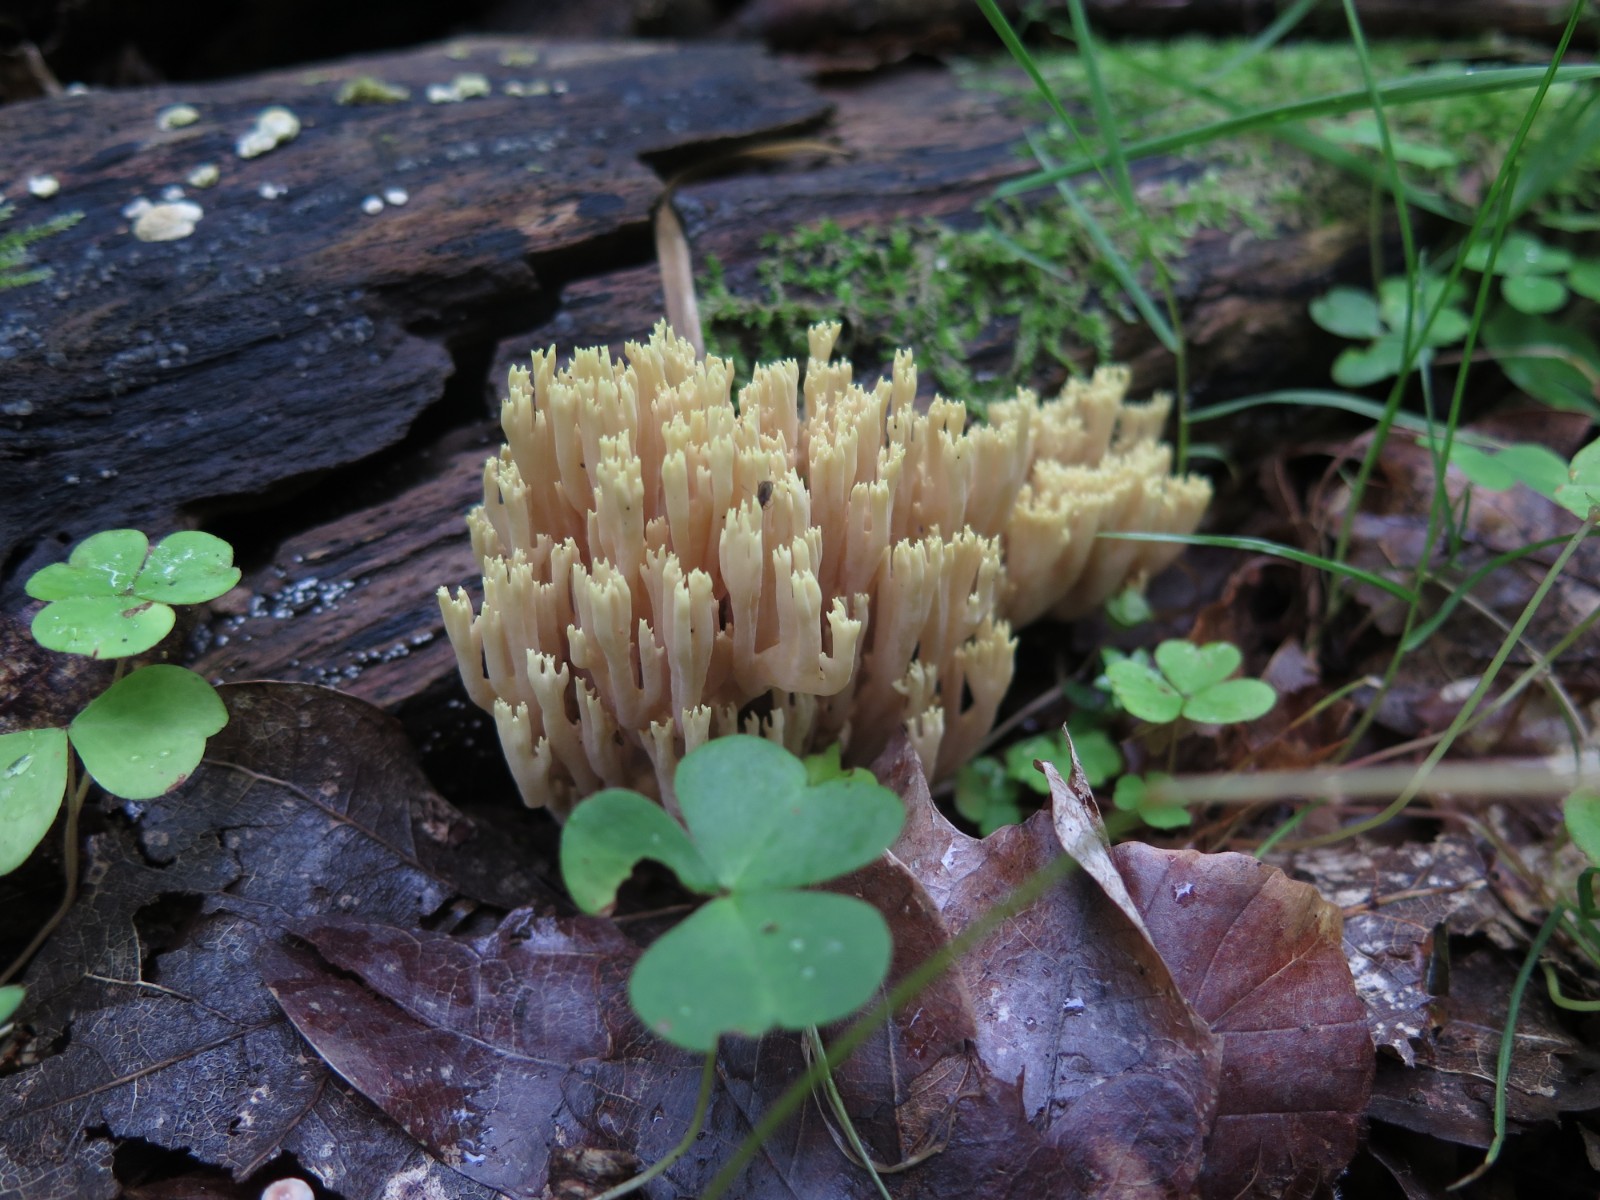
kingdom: Fungi
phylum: Basidiomycota
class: Agaricomycetes
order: Gomphales
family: Gomphaceae
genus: Ramaria
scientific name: Ramaria stricta
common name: rank koralsvamp
